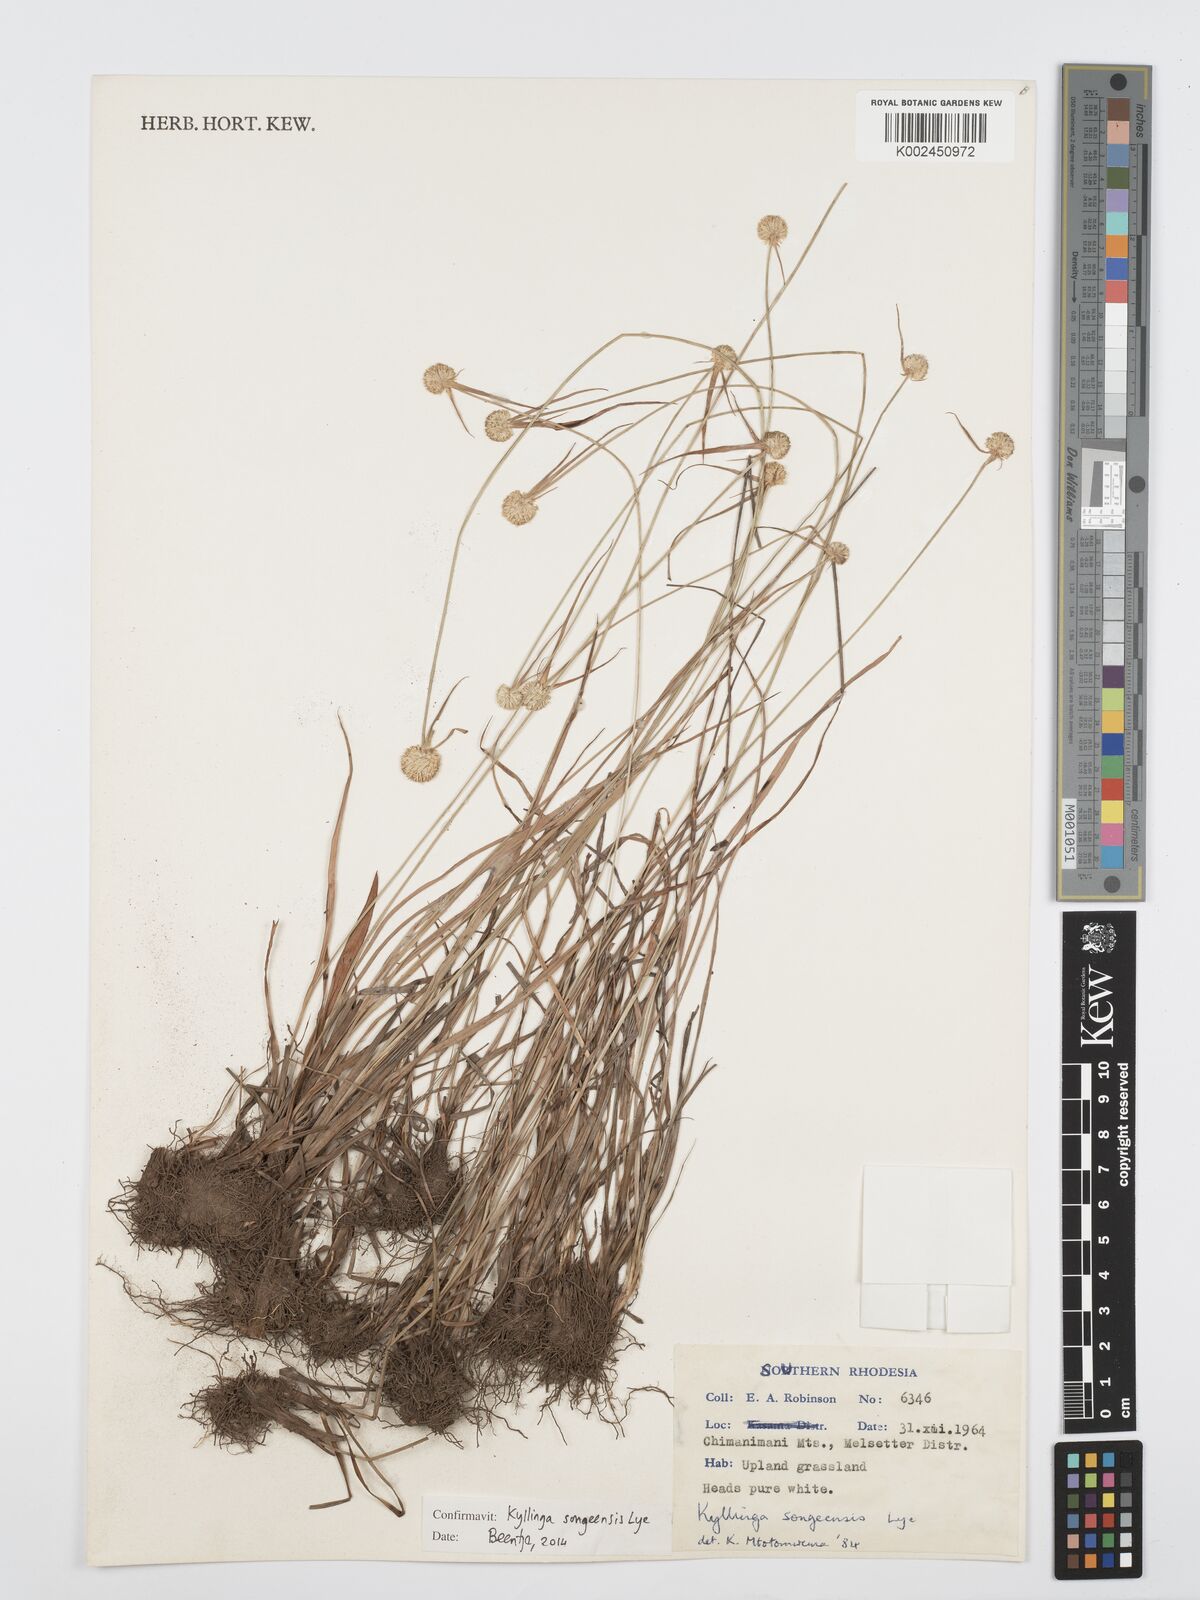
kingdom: Plantae
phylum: Tracheophyta
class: Liliopsida
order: Poales
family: Cyperaceae
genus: Cyperus
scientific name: Cyperus songeensis
